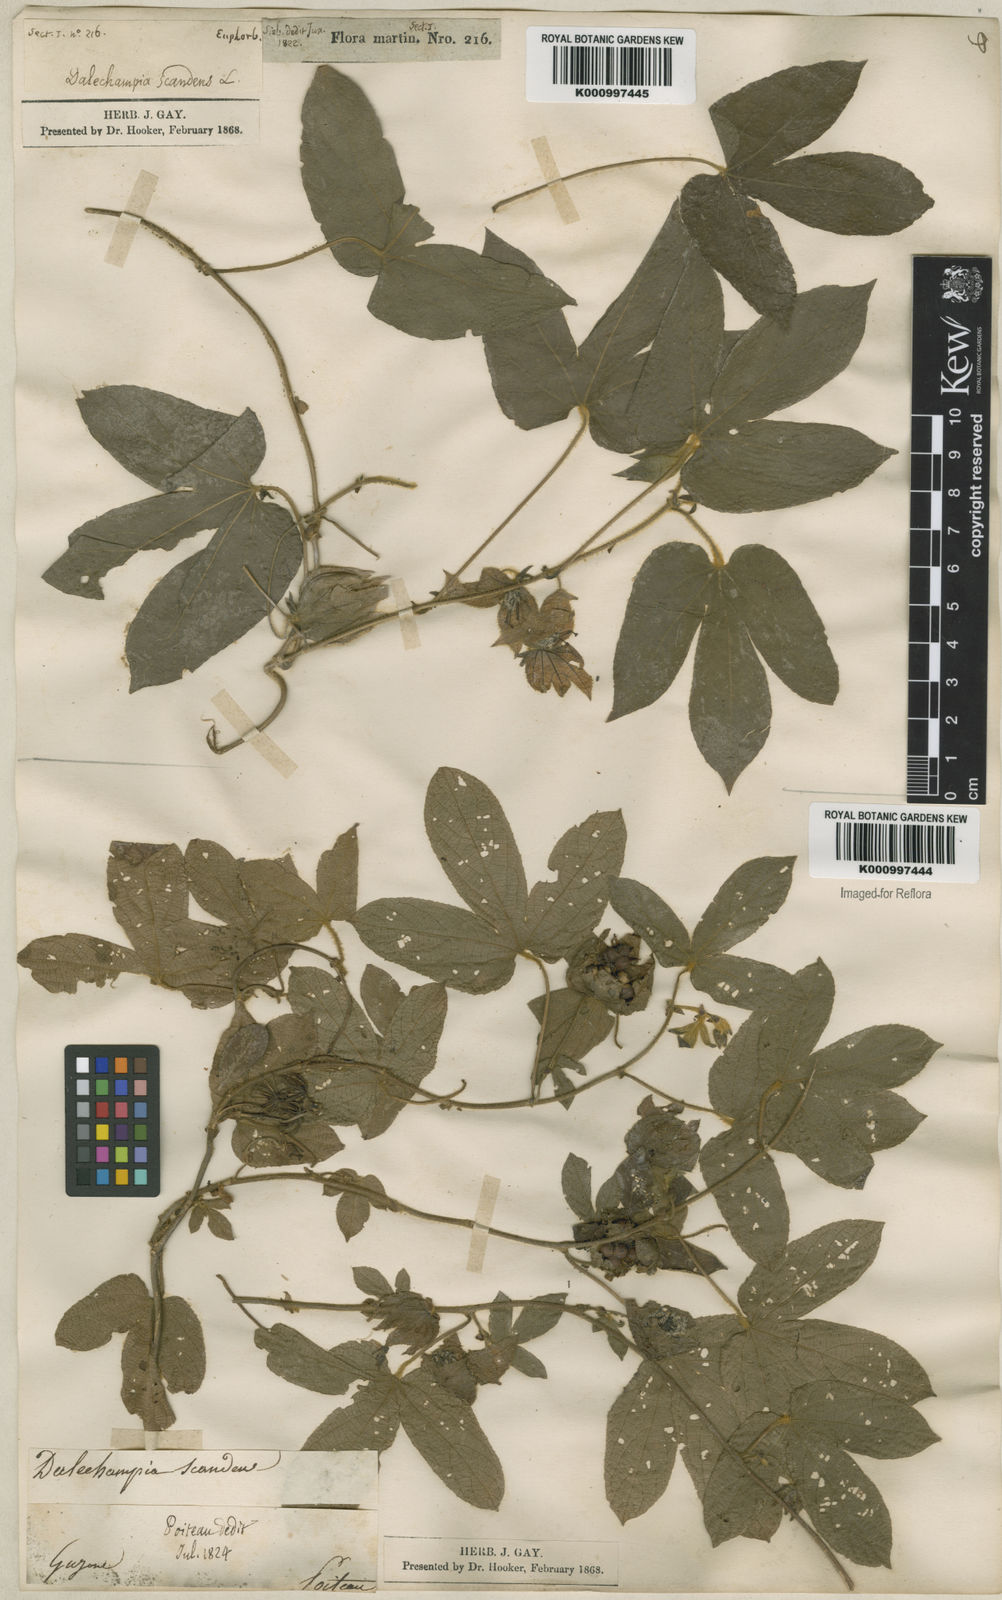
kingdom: Plantae
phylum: Tracheophyta
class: Magnoliopsida
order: Malpighiales
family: Euphorbiaceae
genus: Dalechampia
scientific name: Dalechampia scandens
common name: Spurgecreeper
